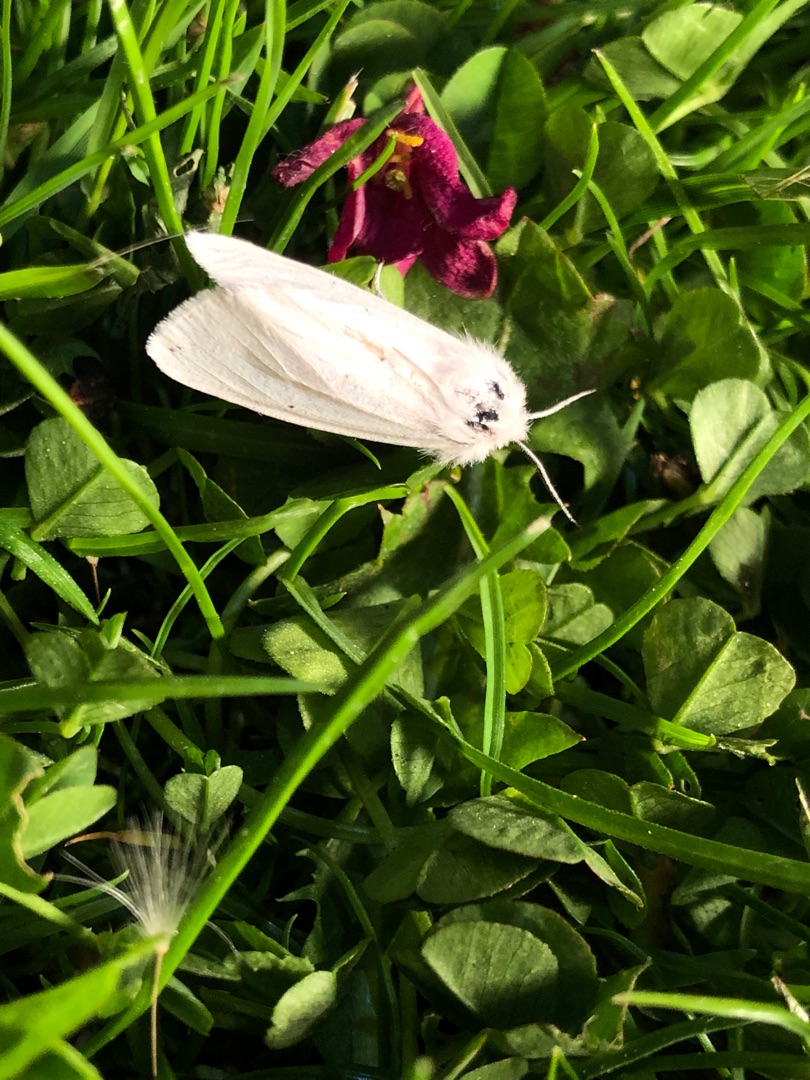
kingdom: Animalia
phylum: Arthropoda
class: Insecta
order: Lepidoptera
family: Erebidae
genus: Spilosoma
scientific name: Spilosoma urticae
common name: Hvid tigerspinder
